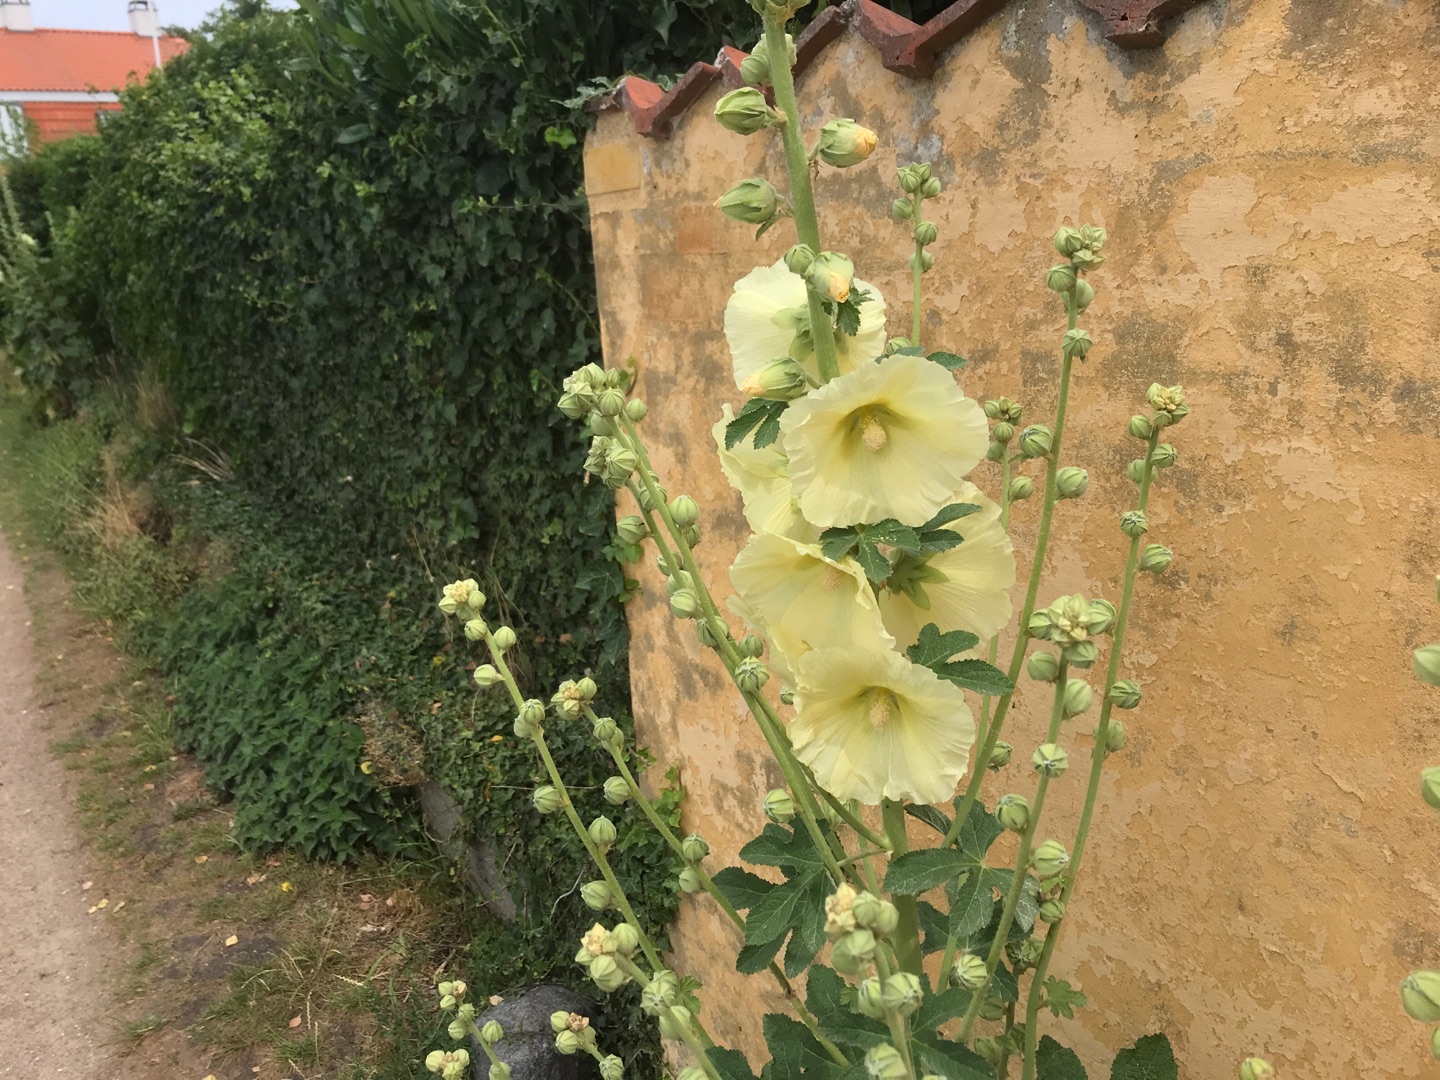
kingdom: Plantae
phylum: Tracheophyta
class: Magnoliopsida
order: Malvales
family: Malvaceae
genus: Alcea
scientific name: Alcea rosea
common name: Have-stokrose
